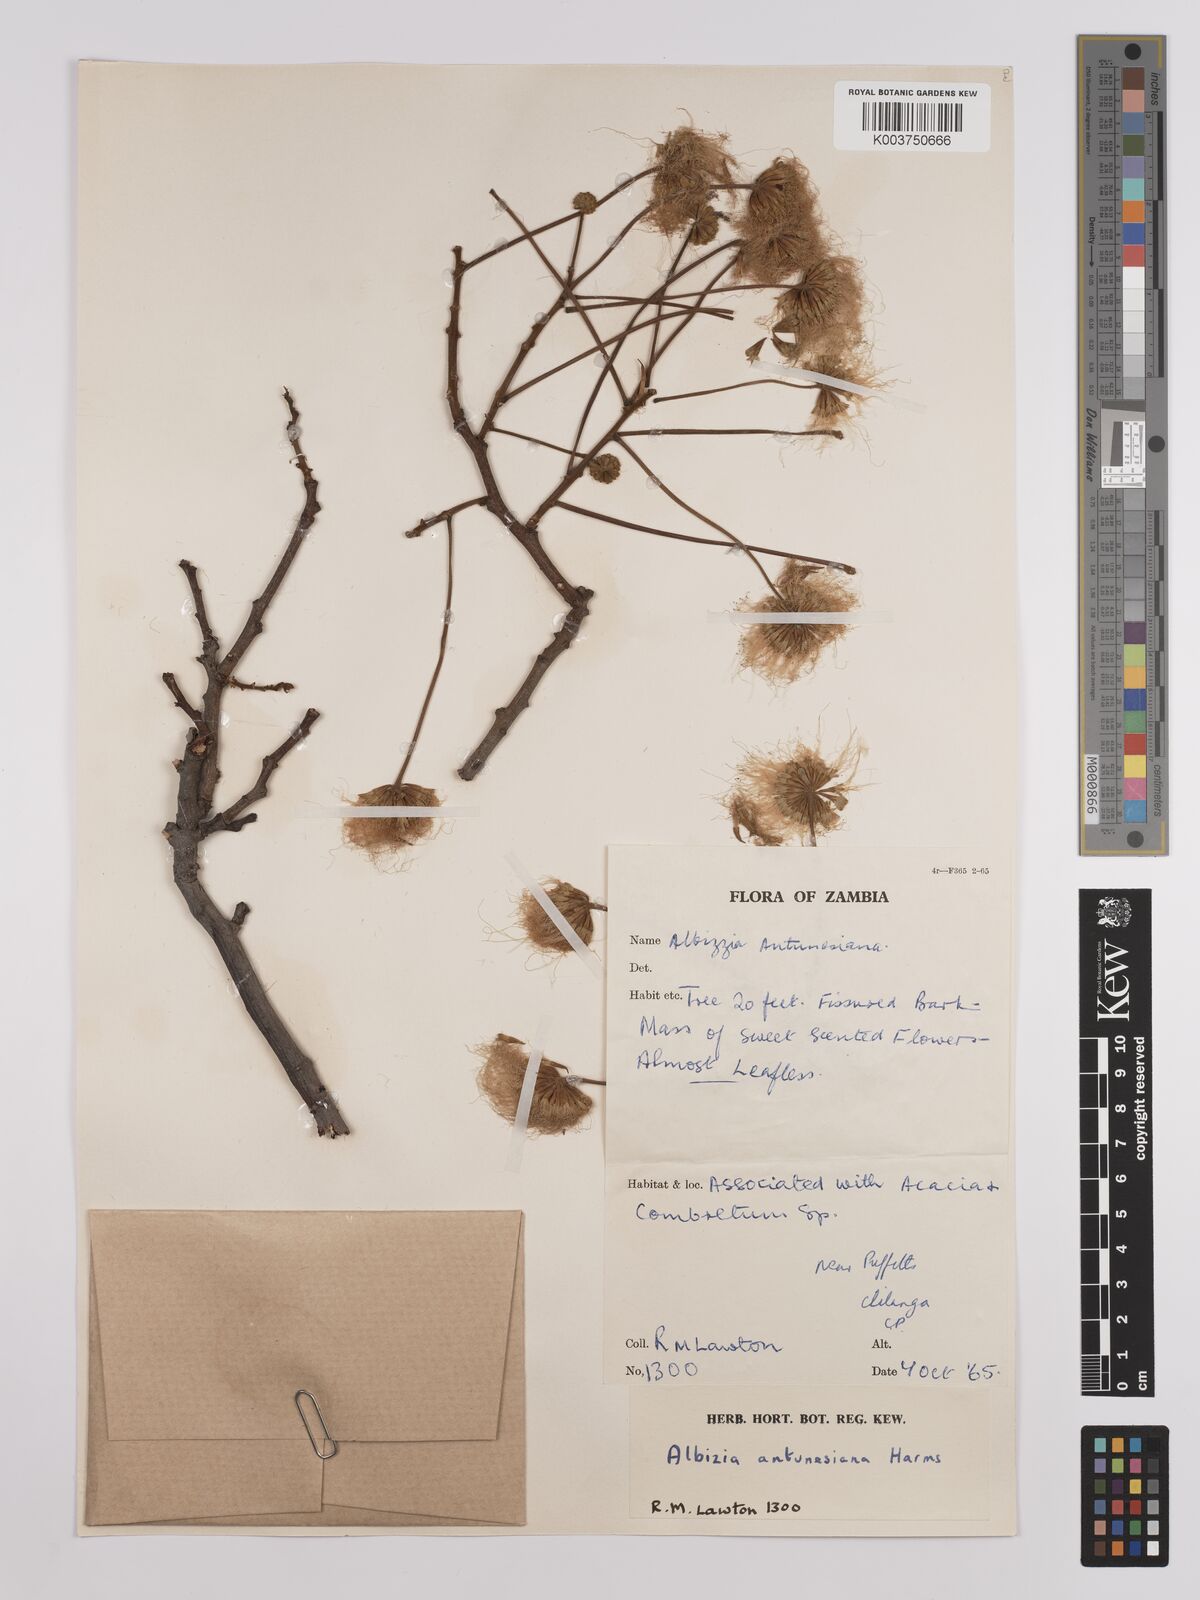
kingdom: Plantae
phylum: Tracheophyta
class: Magnoliopsida
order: Fabales
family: Fabaceae
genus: Albizia
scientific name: Albizia antunesiana
